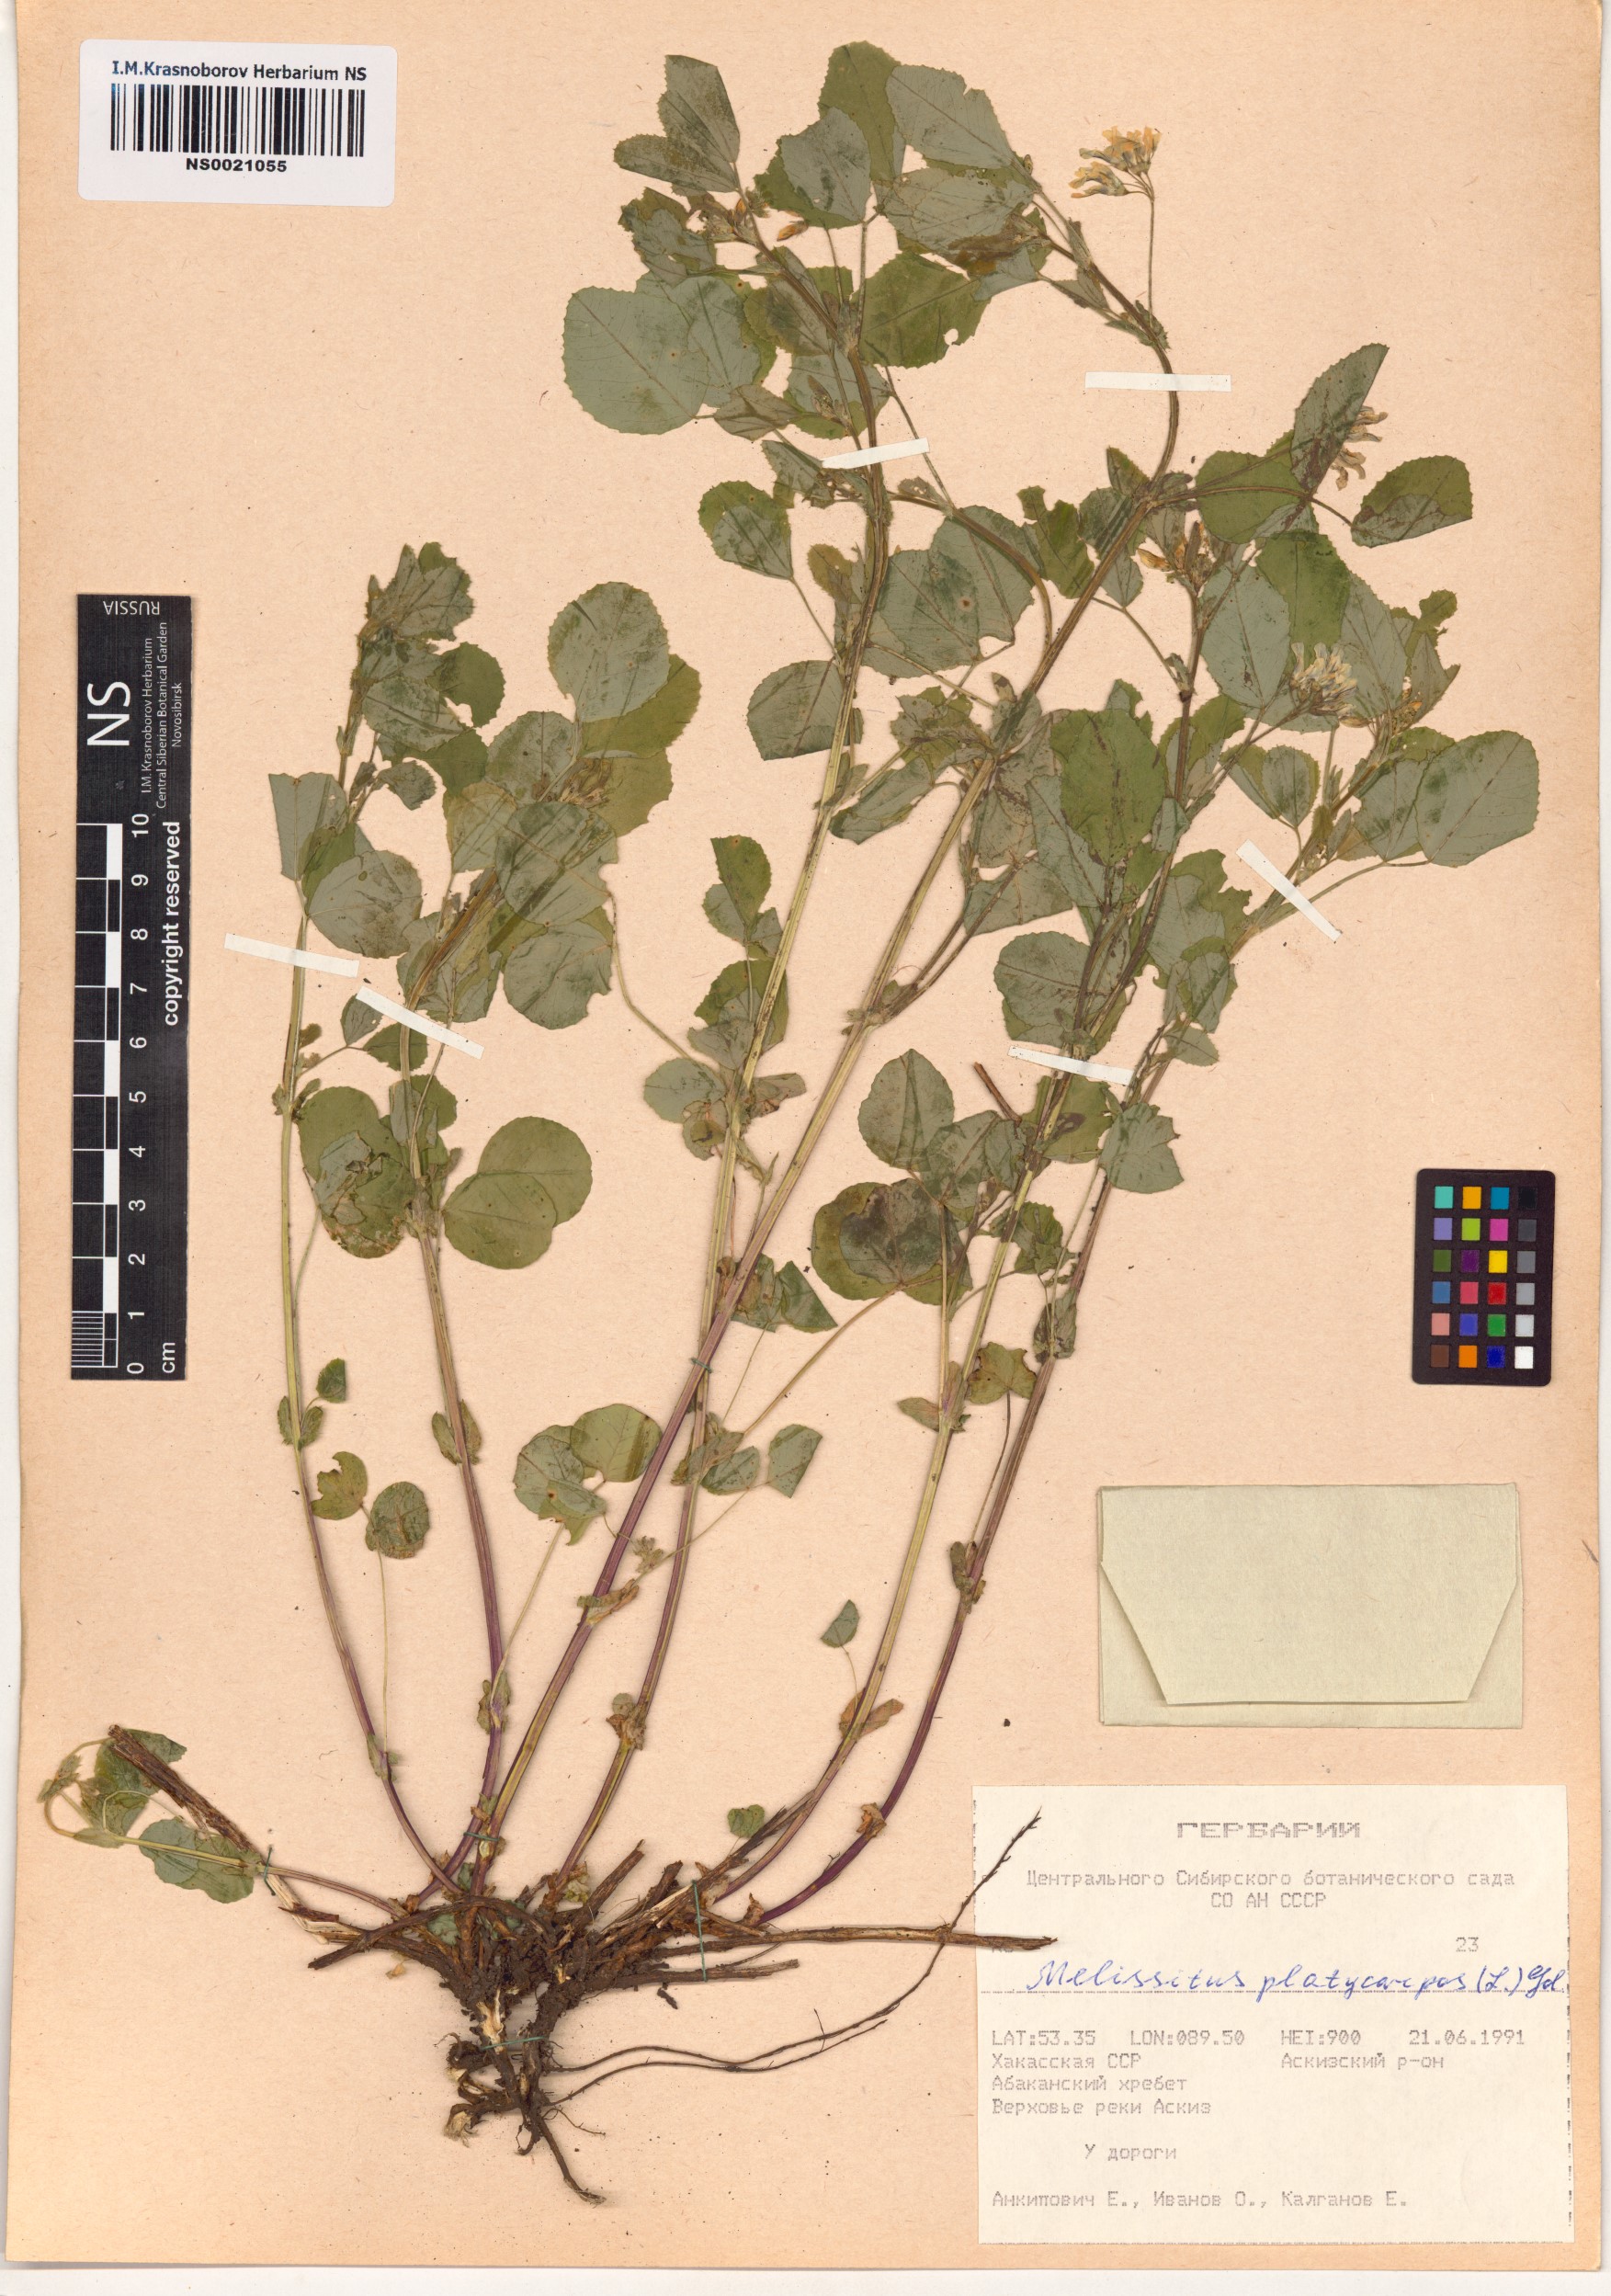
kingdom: Plantae
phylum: Tracheophyta
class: Magnoliopsida
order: Fabales
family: Fabaceae
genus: Medicago
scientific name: Medicago platycarpos
